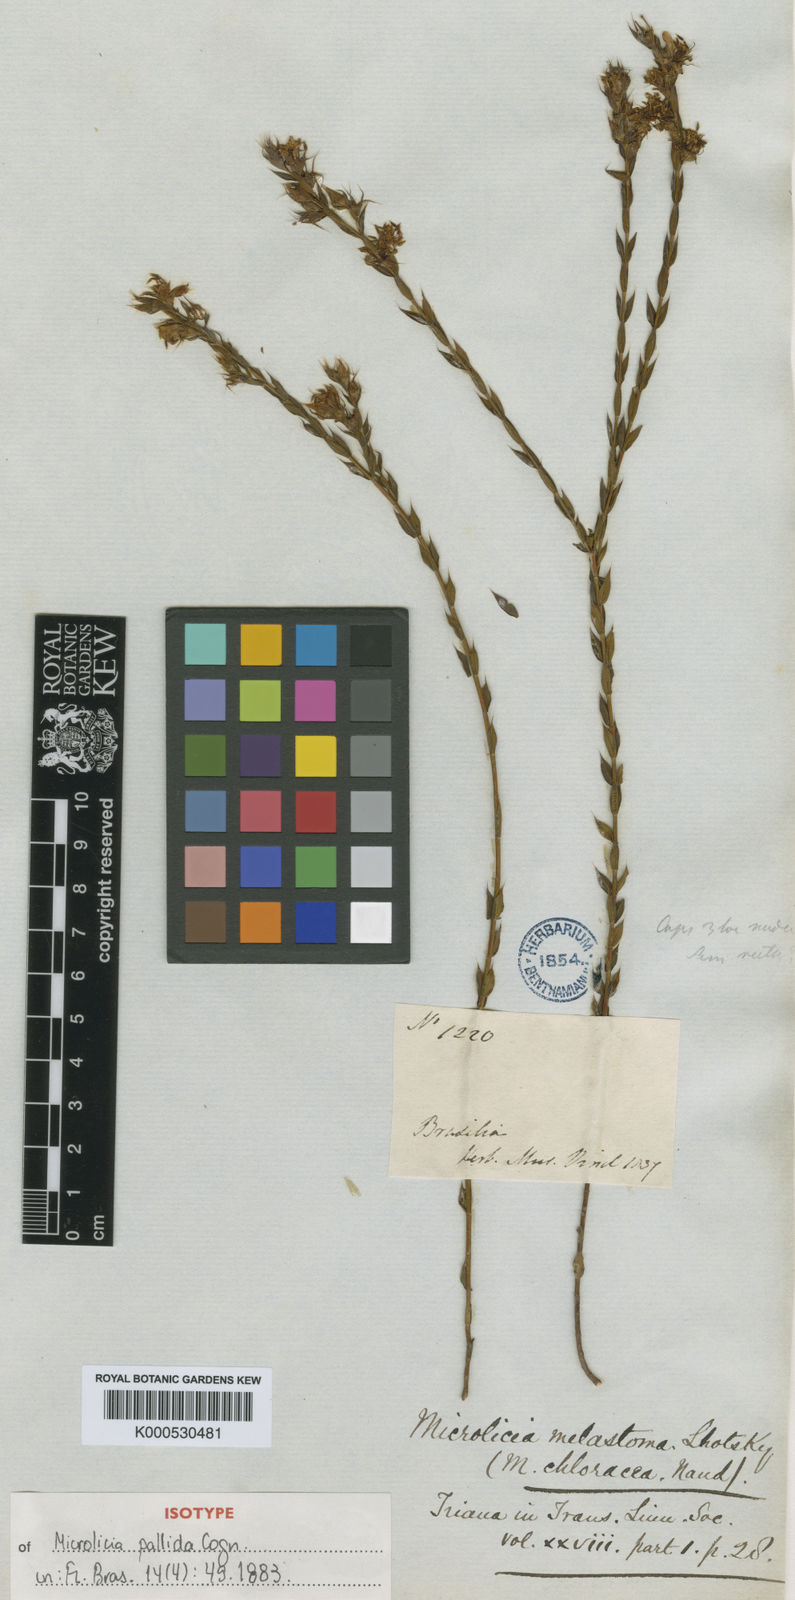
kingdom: Plantae
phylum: Tracheophyta
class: Magnoliopsida
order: Myrtales
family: Melastomataceae
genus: Microlicia
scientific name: Microlicia
